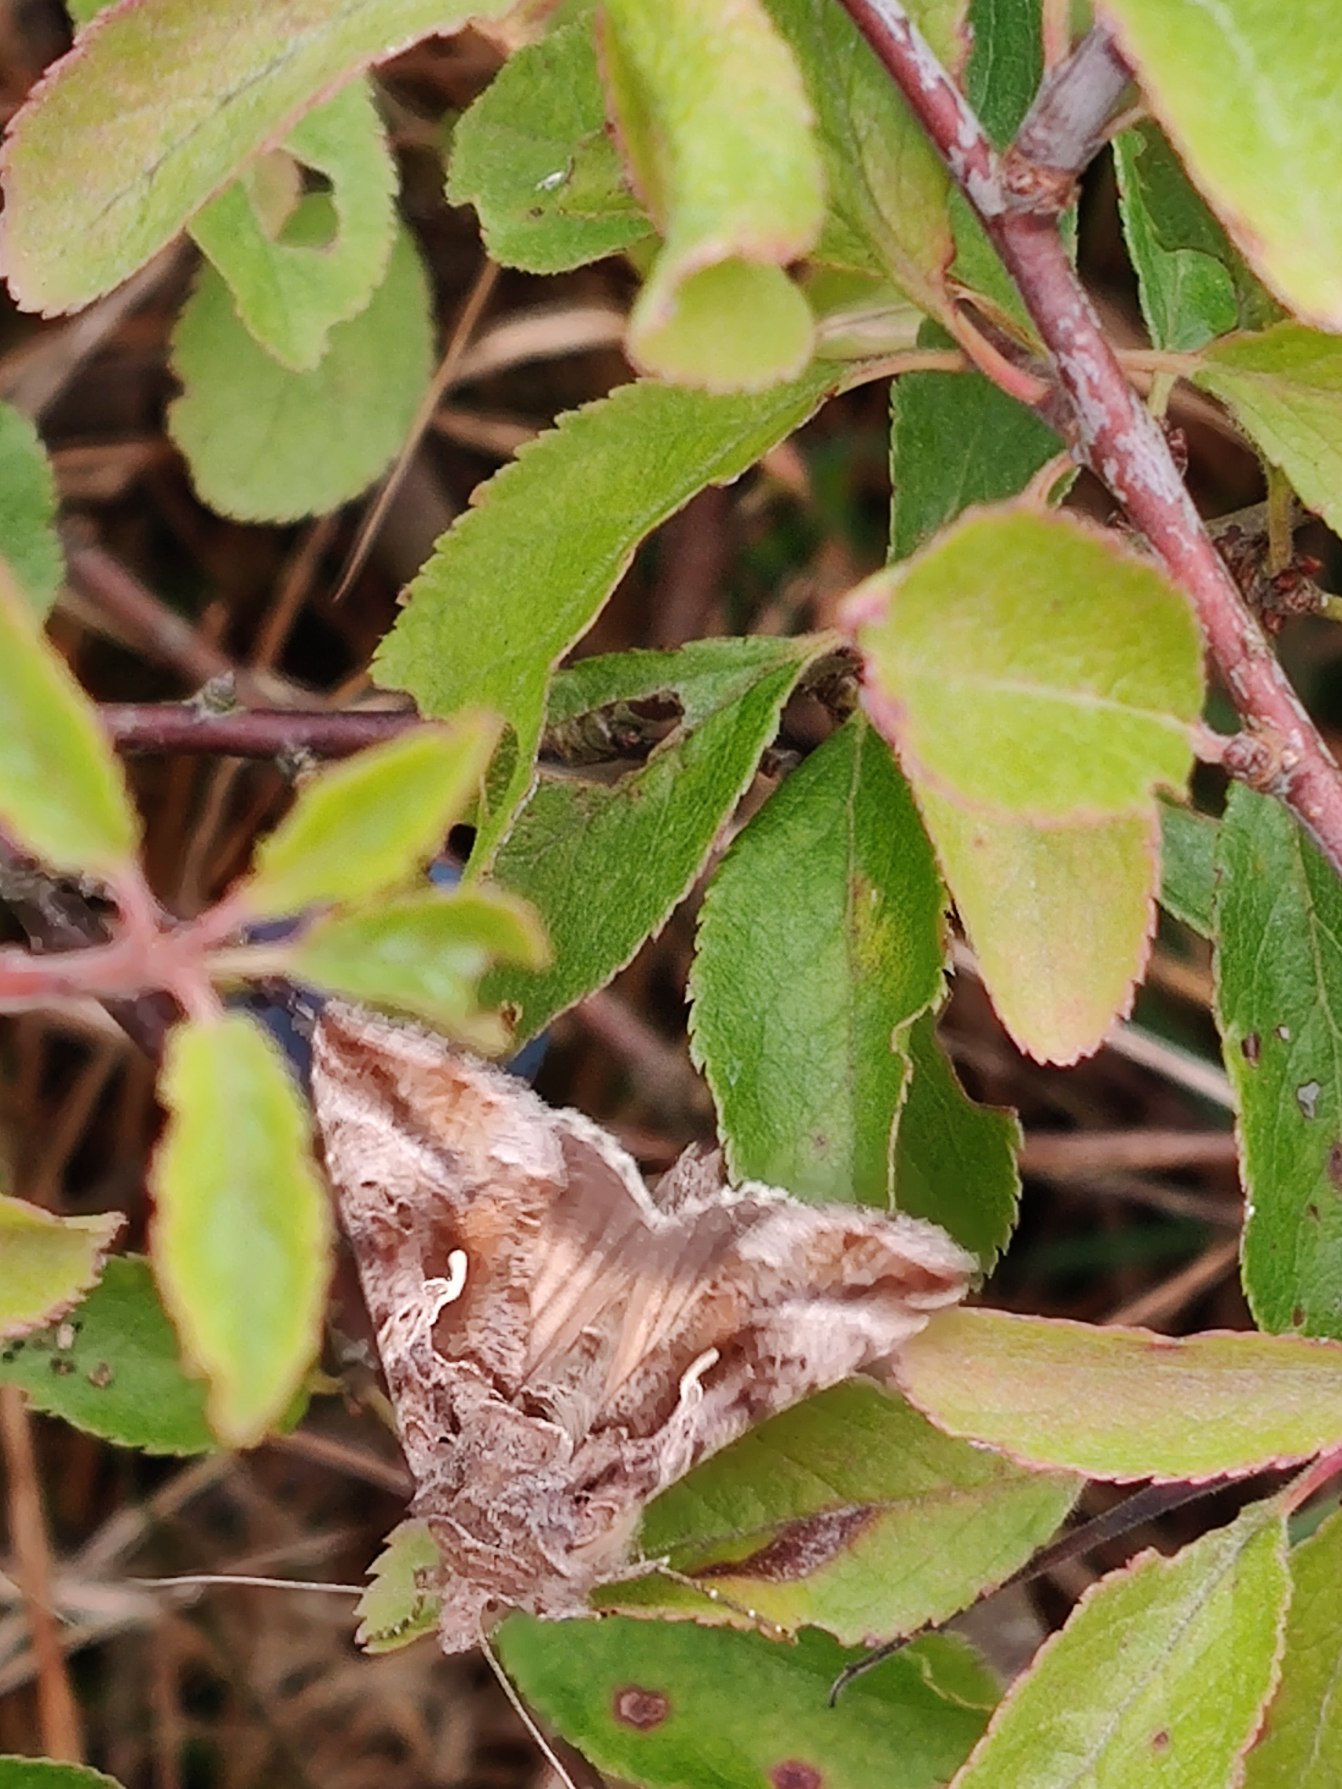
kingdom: Animalia
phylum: Arthropoda
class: Insecta
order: Lepidoptera
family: Noctuidae
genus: Autographa
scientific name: Autographa gamma
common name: Gammaugle
